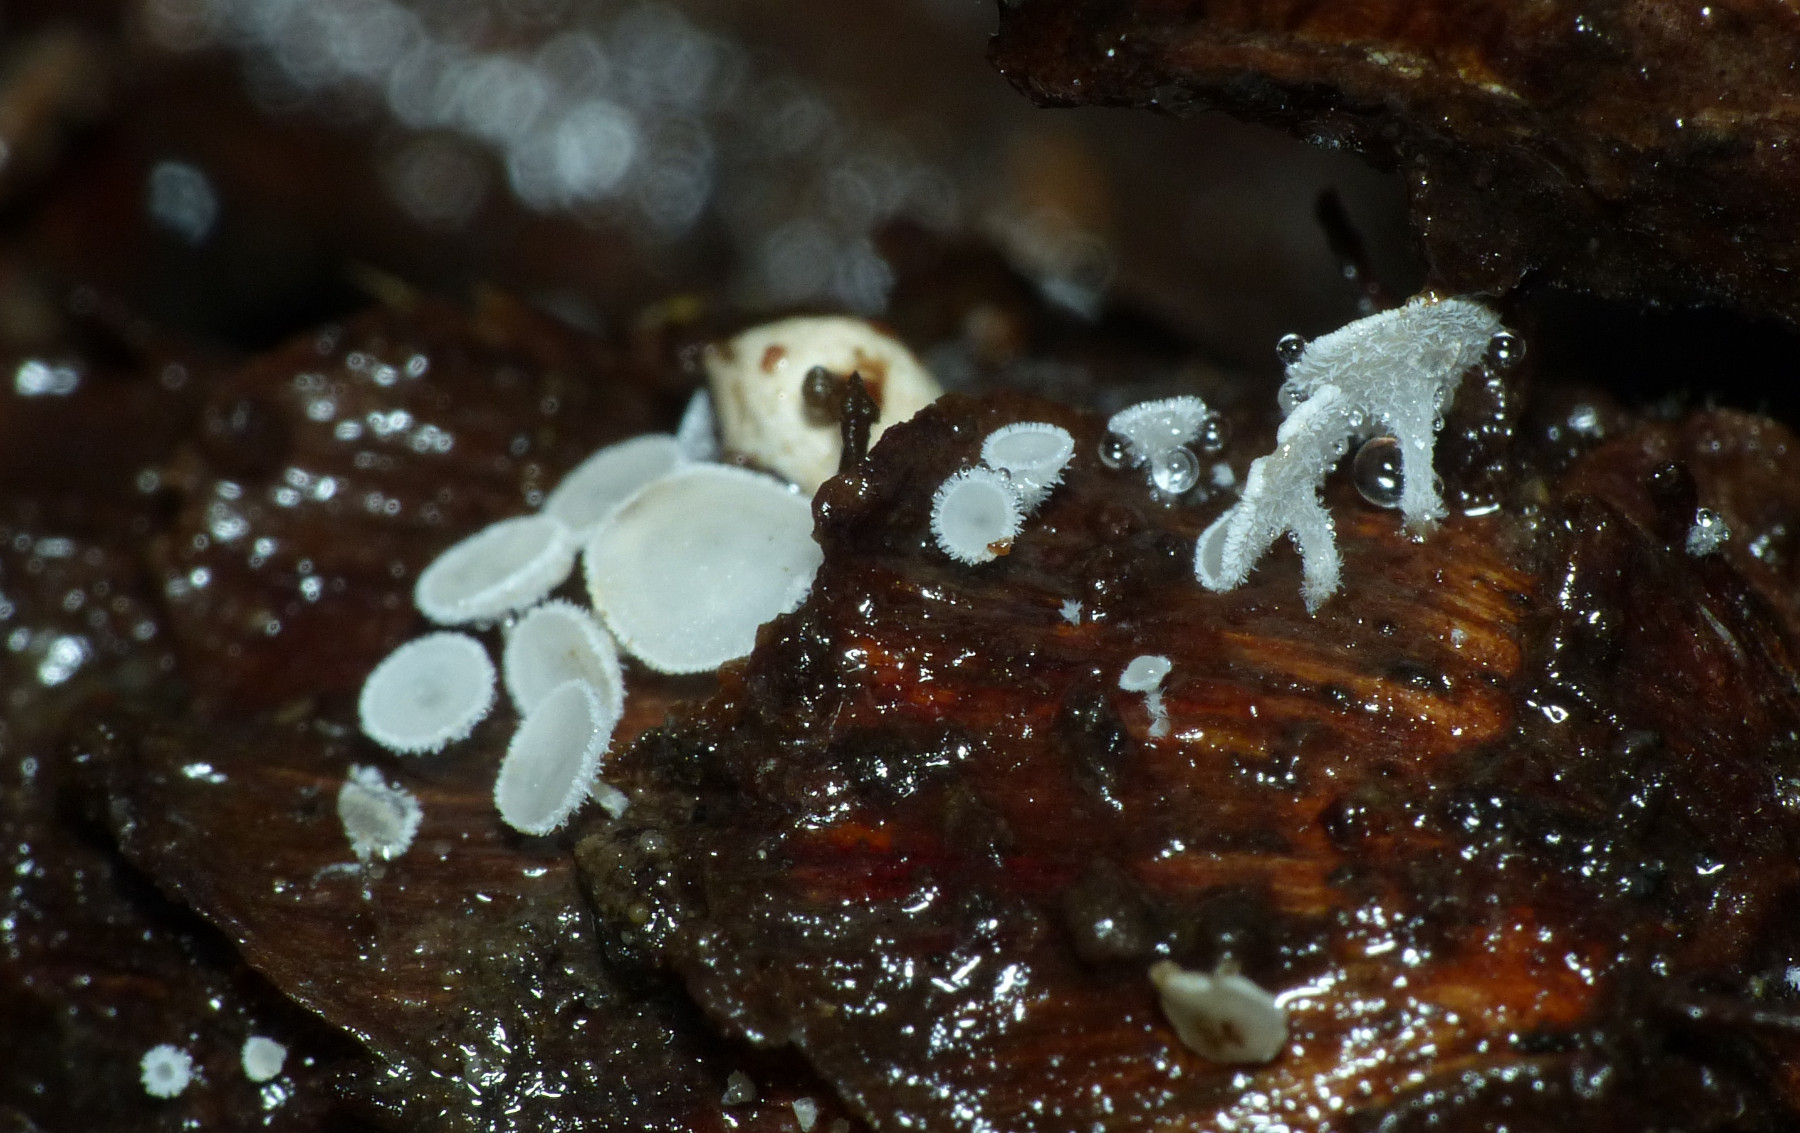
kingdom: Fungi
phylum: Ascomycota
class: Leotiomycetes
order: Helotiales
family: Lachnaceae
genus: Lachnum
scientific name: Lachnum
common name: frynseskive
